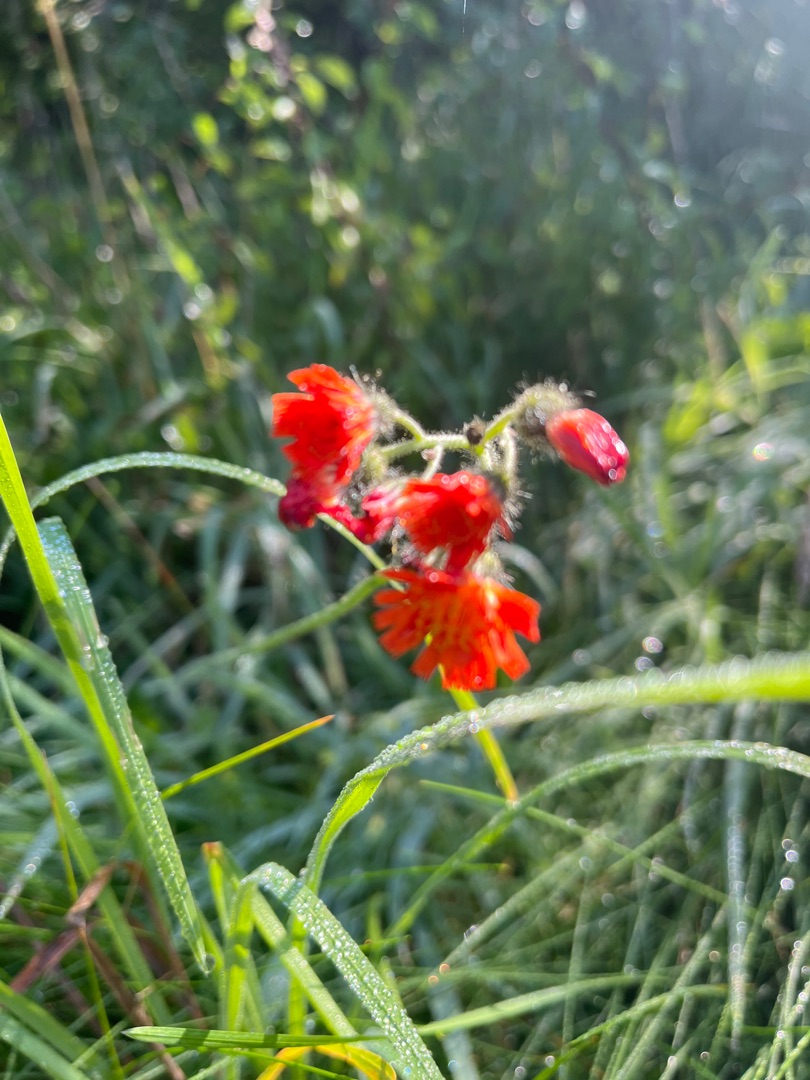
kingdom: Plantae
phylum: Tracheophyta
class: Magnoliopsida
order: Asterales
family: Asteraceae
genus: Pilosella
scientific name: Pilosella aurantiaca
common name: Pomerans-høgeurt
